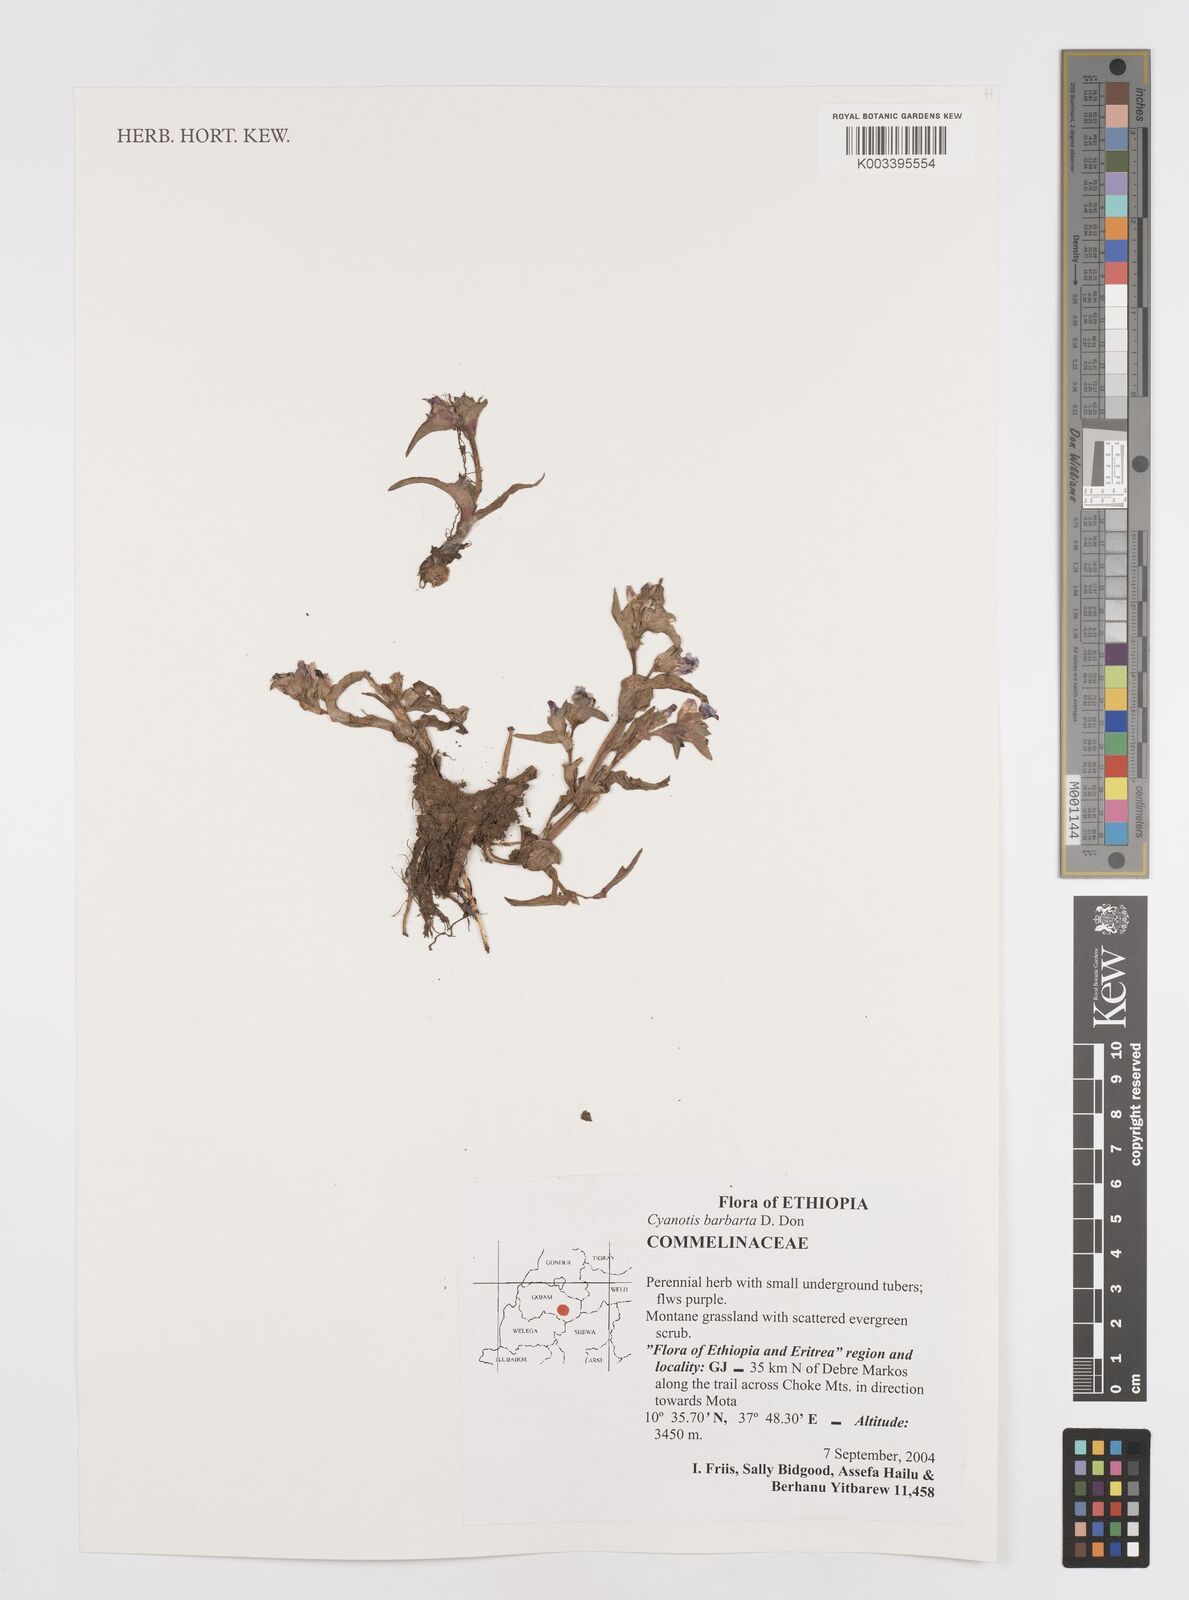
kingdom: Plantae
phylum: Tracheophyta
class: Liliopsida
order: Commelinales
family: Commelinaceae
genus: Cyanotis
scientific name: Cyanotis vaga
